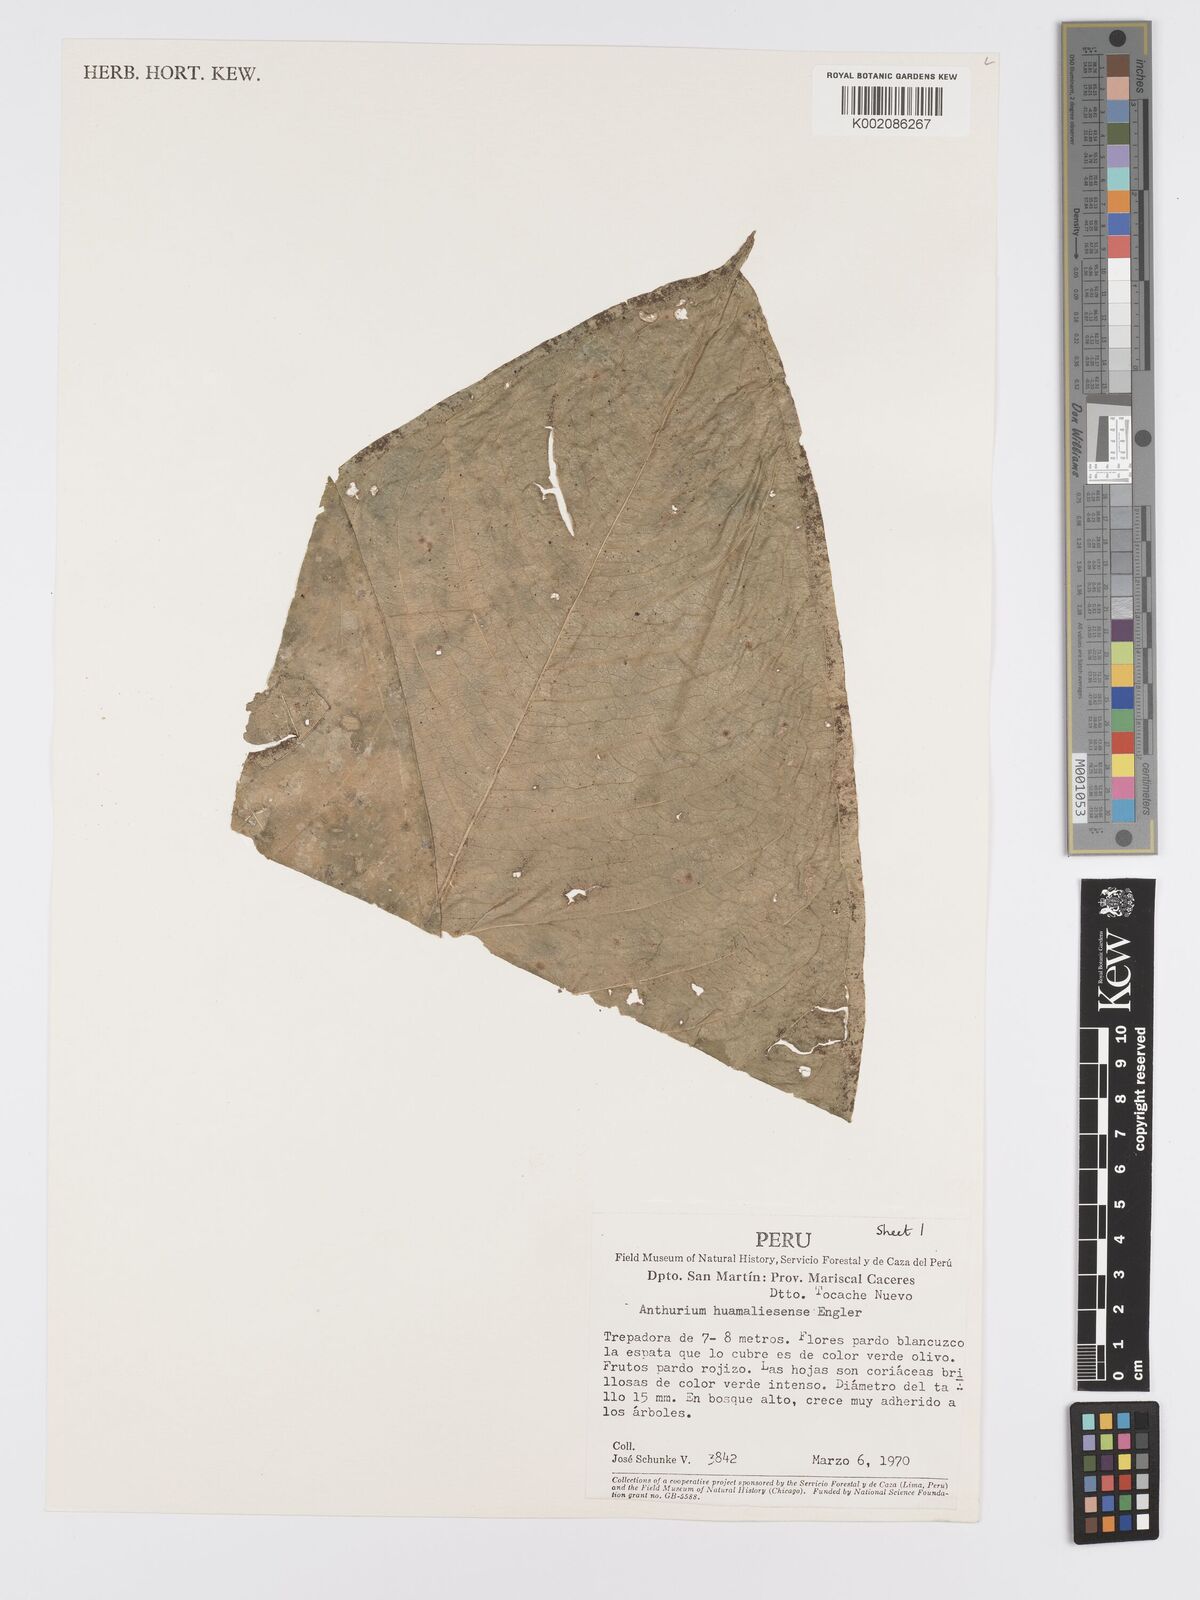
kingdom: Plantae
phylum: Tracheophyta
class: Liliopsida
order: Alismatales
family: Araceae
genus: Anthurium
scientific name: Anthurium breviscapum
